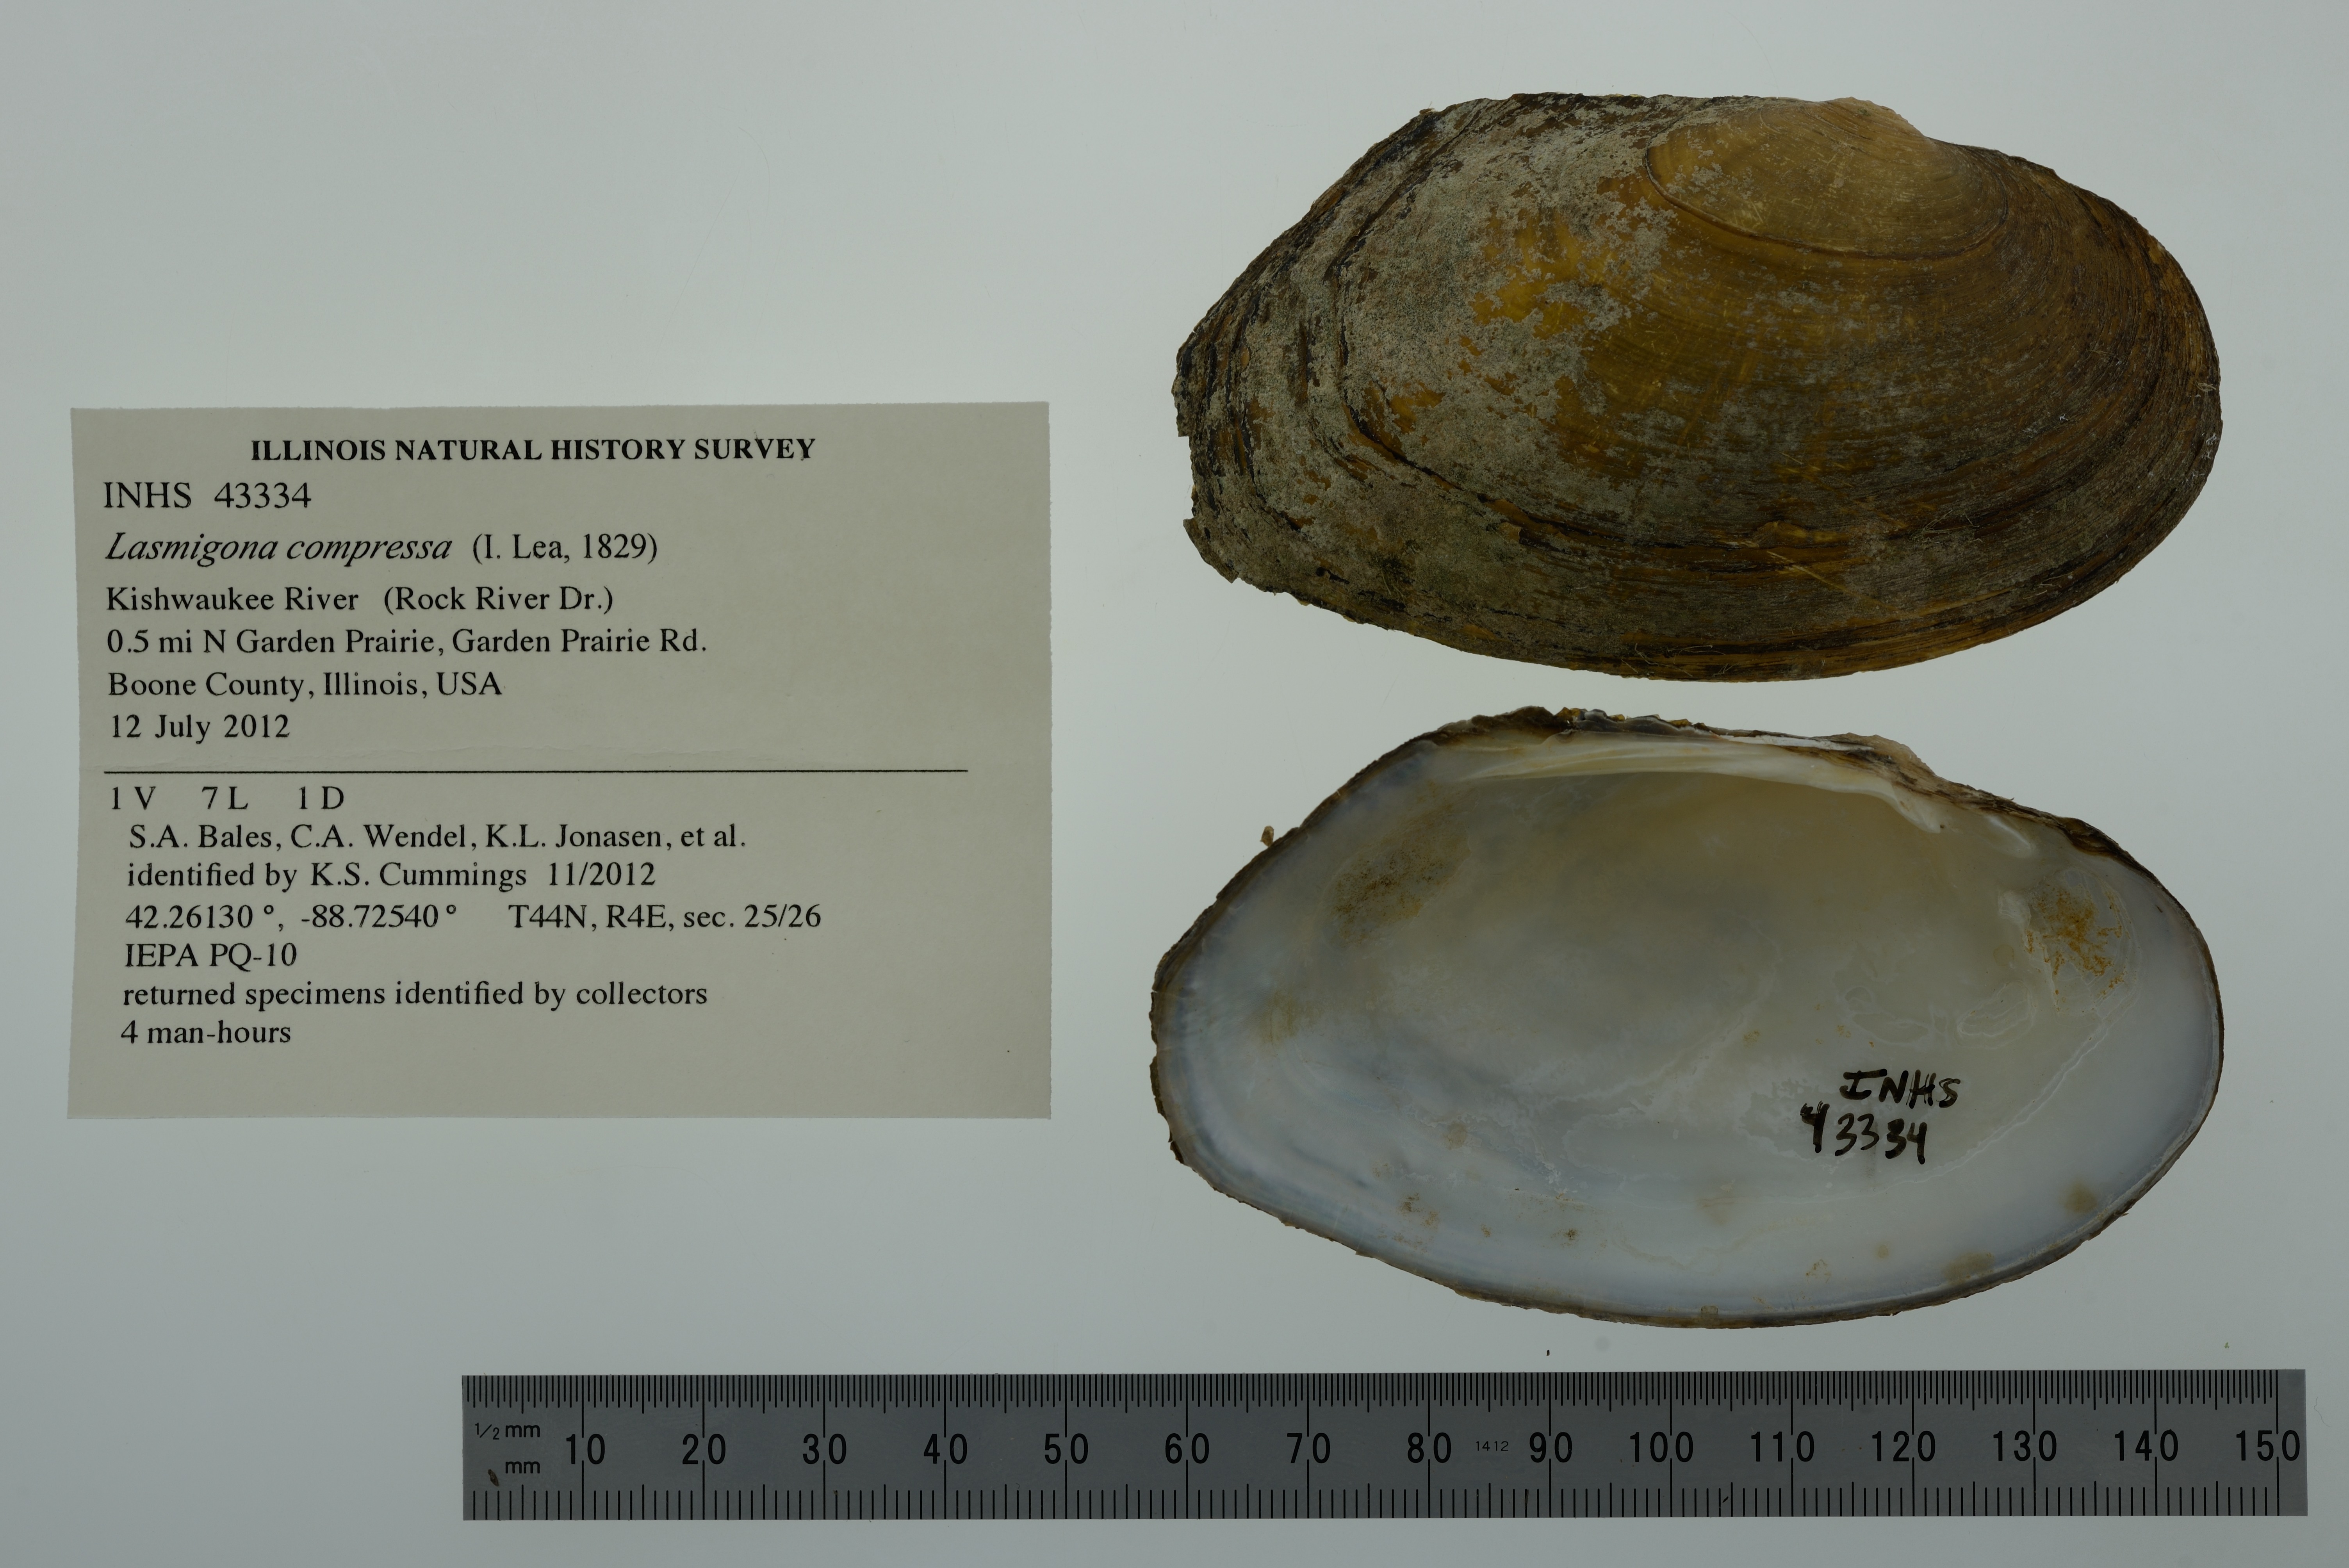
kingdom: Animalia
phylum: Mollusca
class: Bivalvia
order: Unionida
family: Unionidae
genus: Lasmigona
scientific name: Lasmigona compressa
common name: Creek heelsplitter
